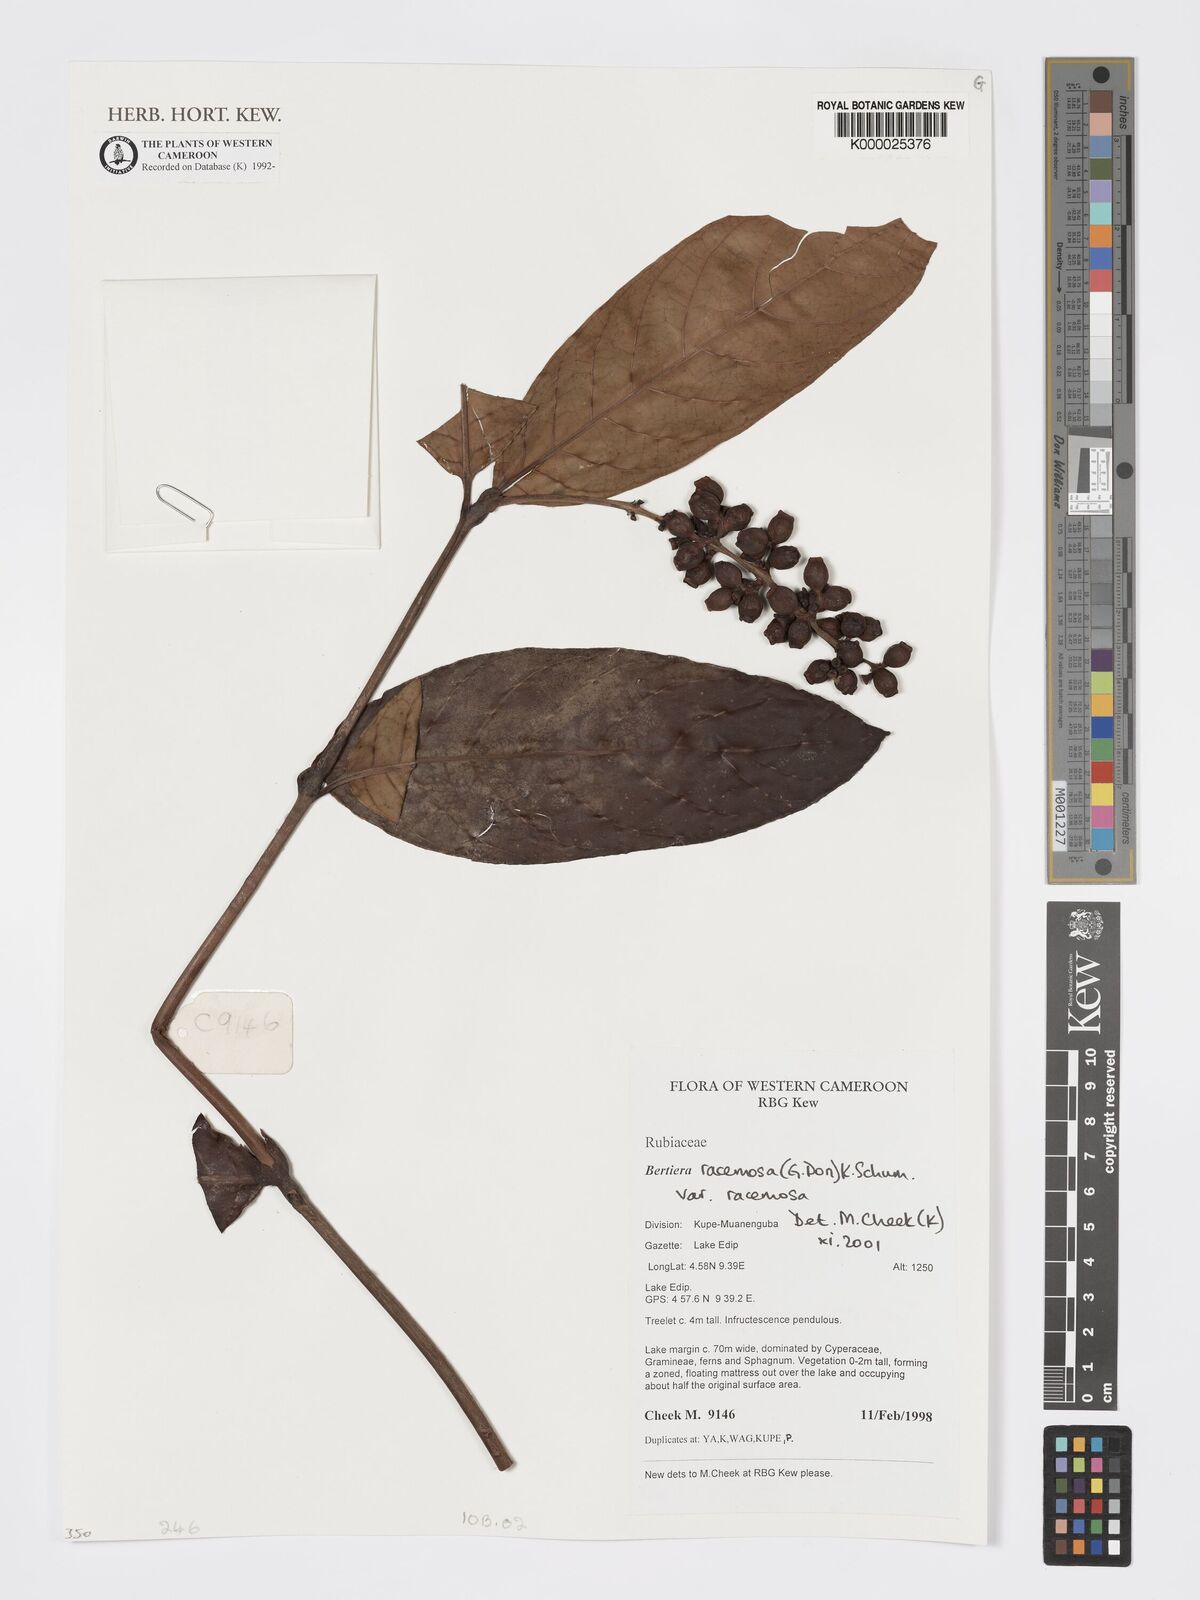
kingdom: Plantae
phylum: Tracheophyta
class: Magnoliopsida
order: Gentianales
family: Rubiaceae
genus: Bertiera
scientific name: Bertiera racemosa
